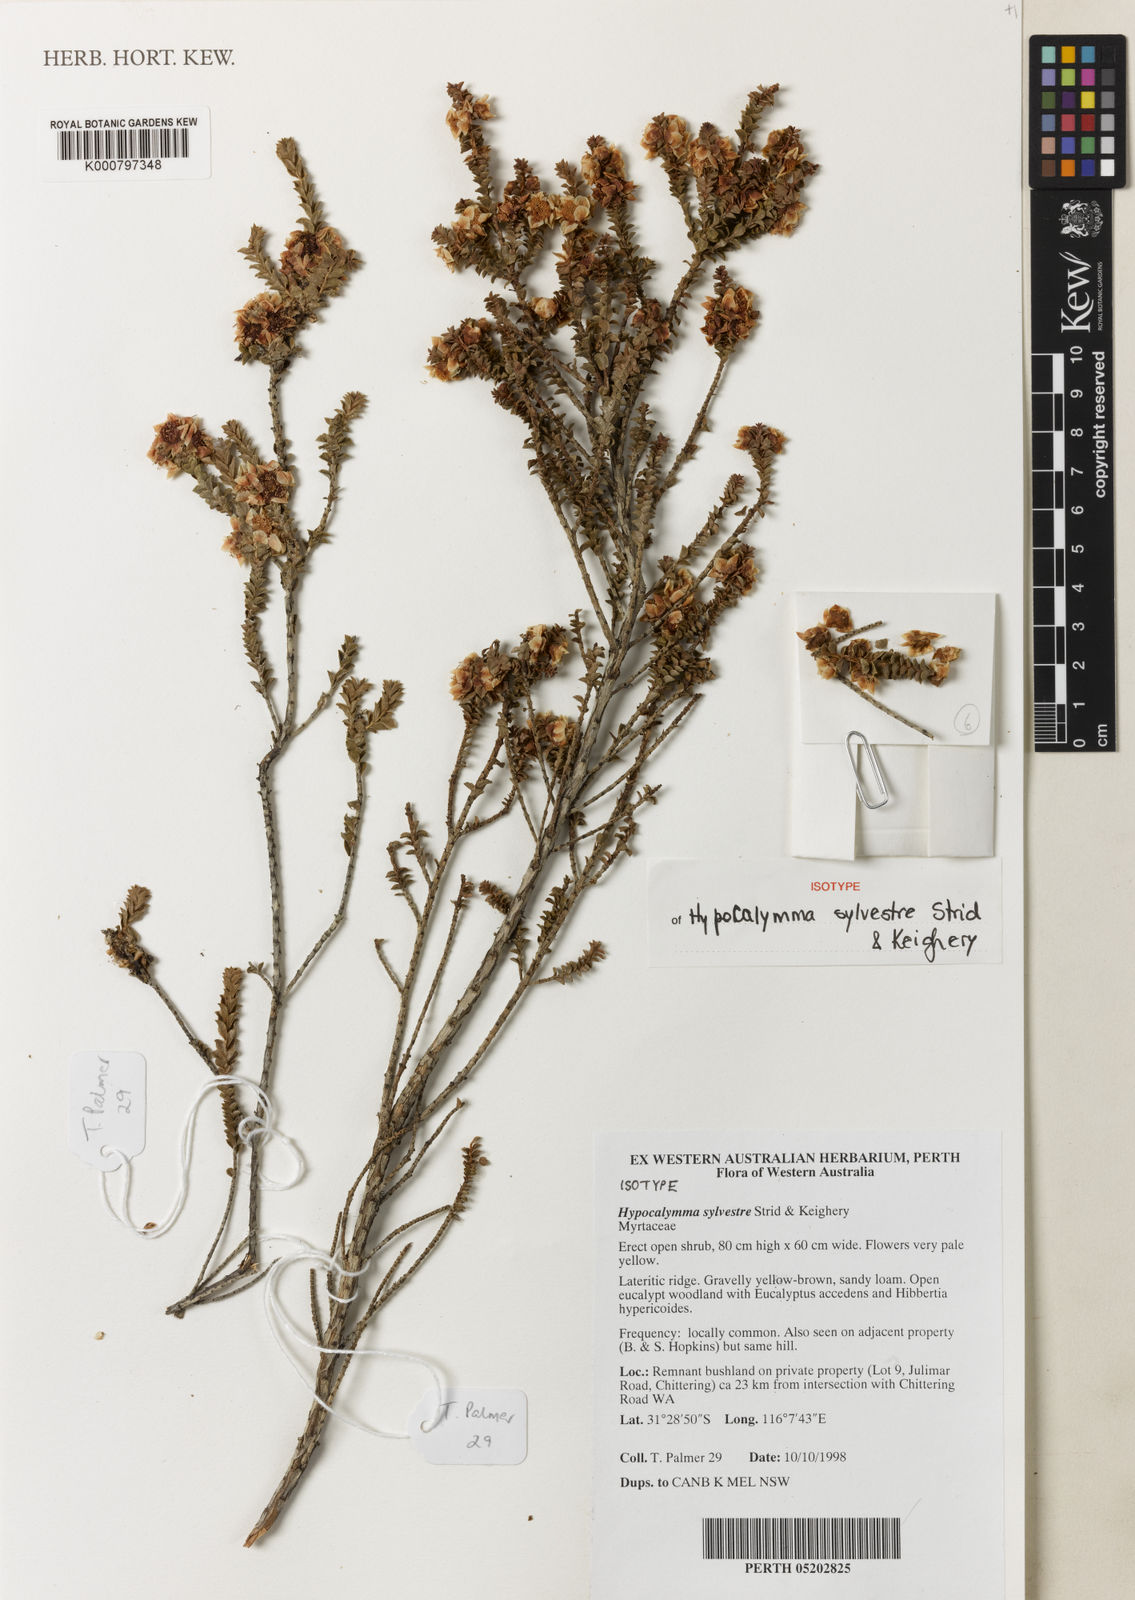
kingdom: Plantae
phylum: Tracheophyta
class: Magnoliopsida
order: Myrtales
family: Myrtaceae
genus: Hypocalymma
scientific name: Hypocalymma sylvestris
